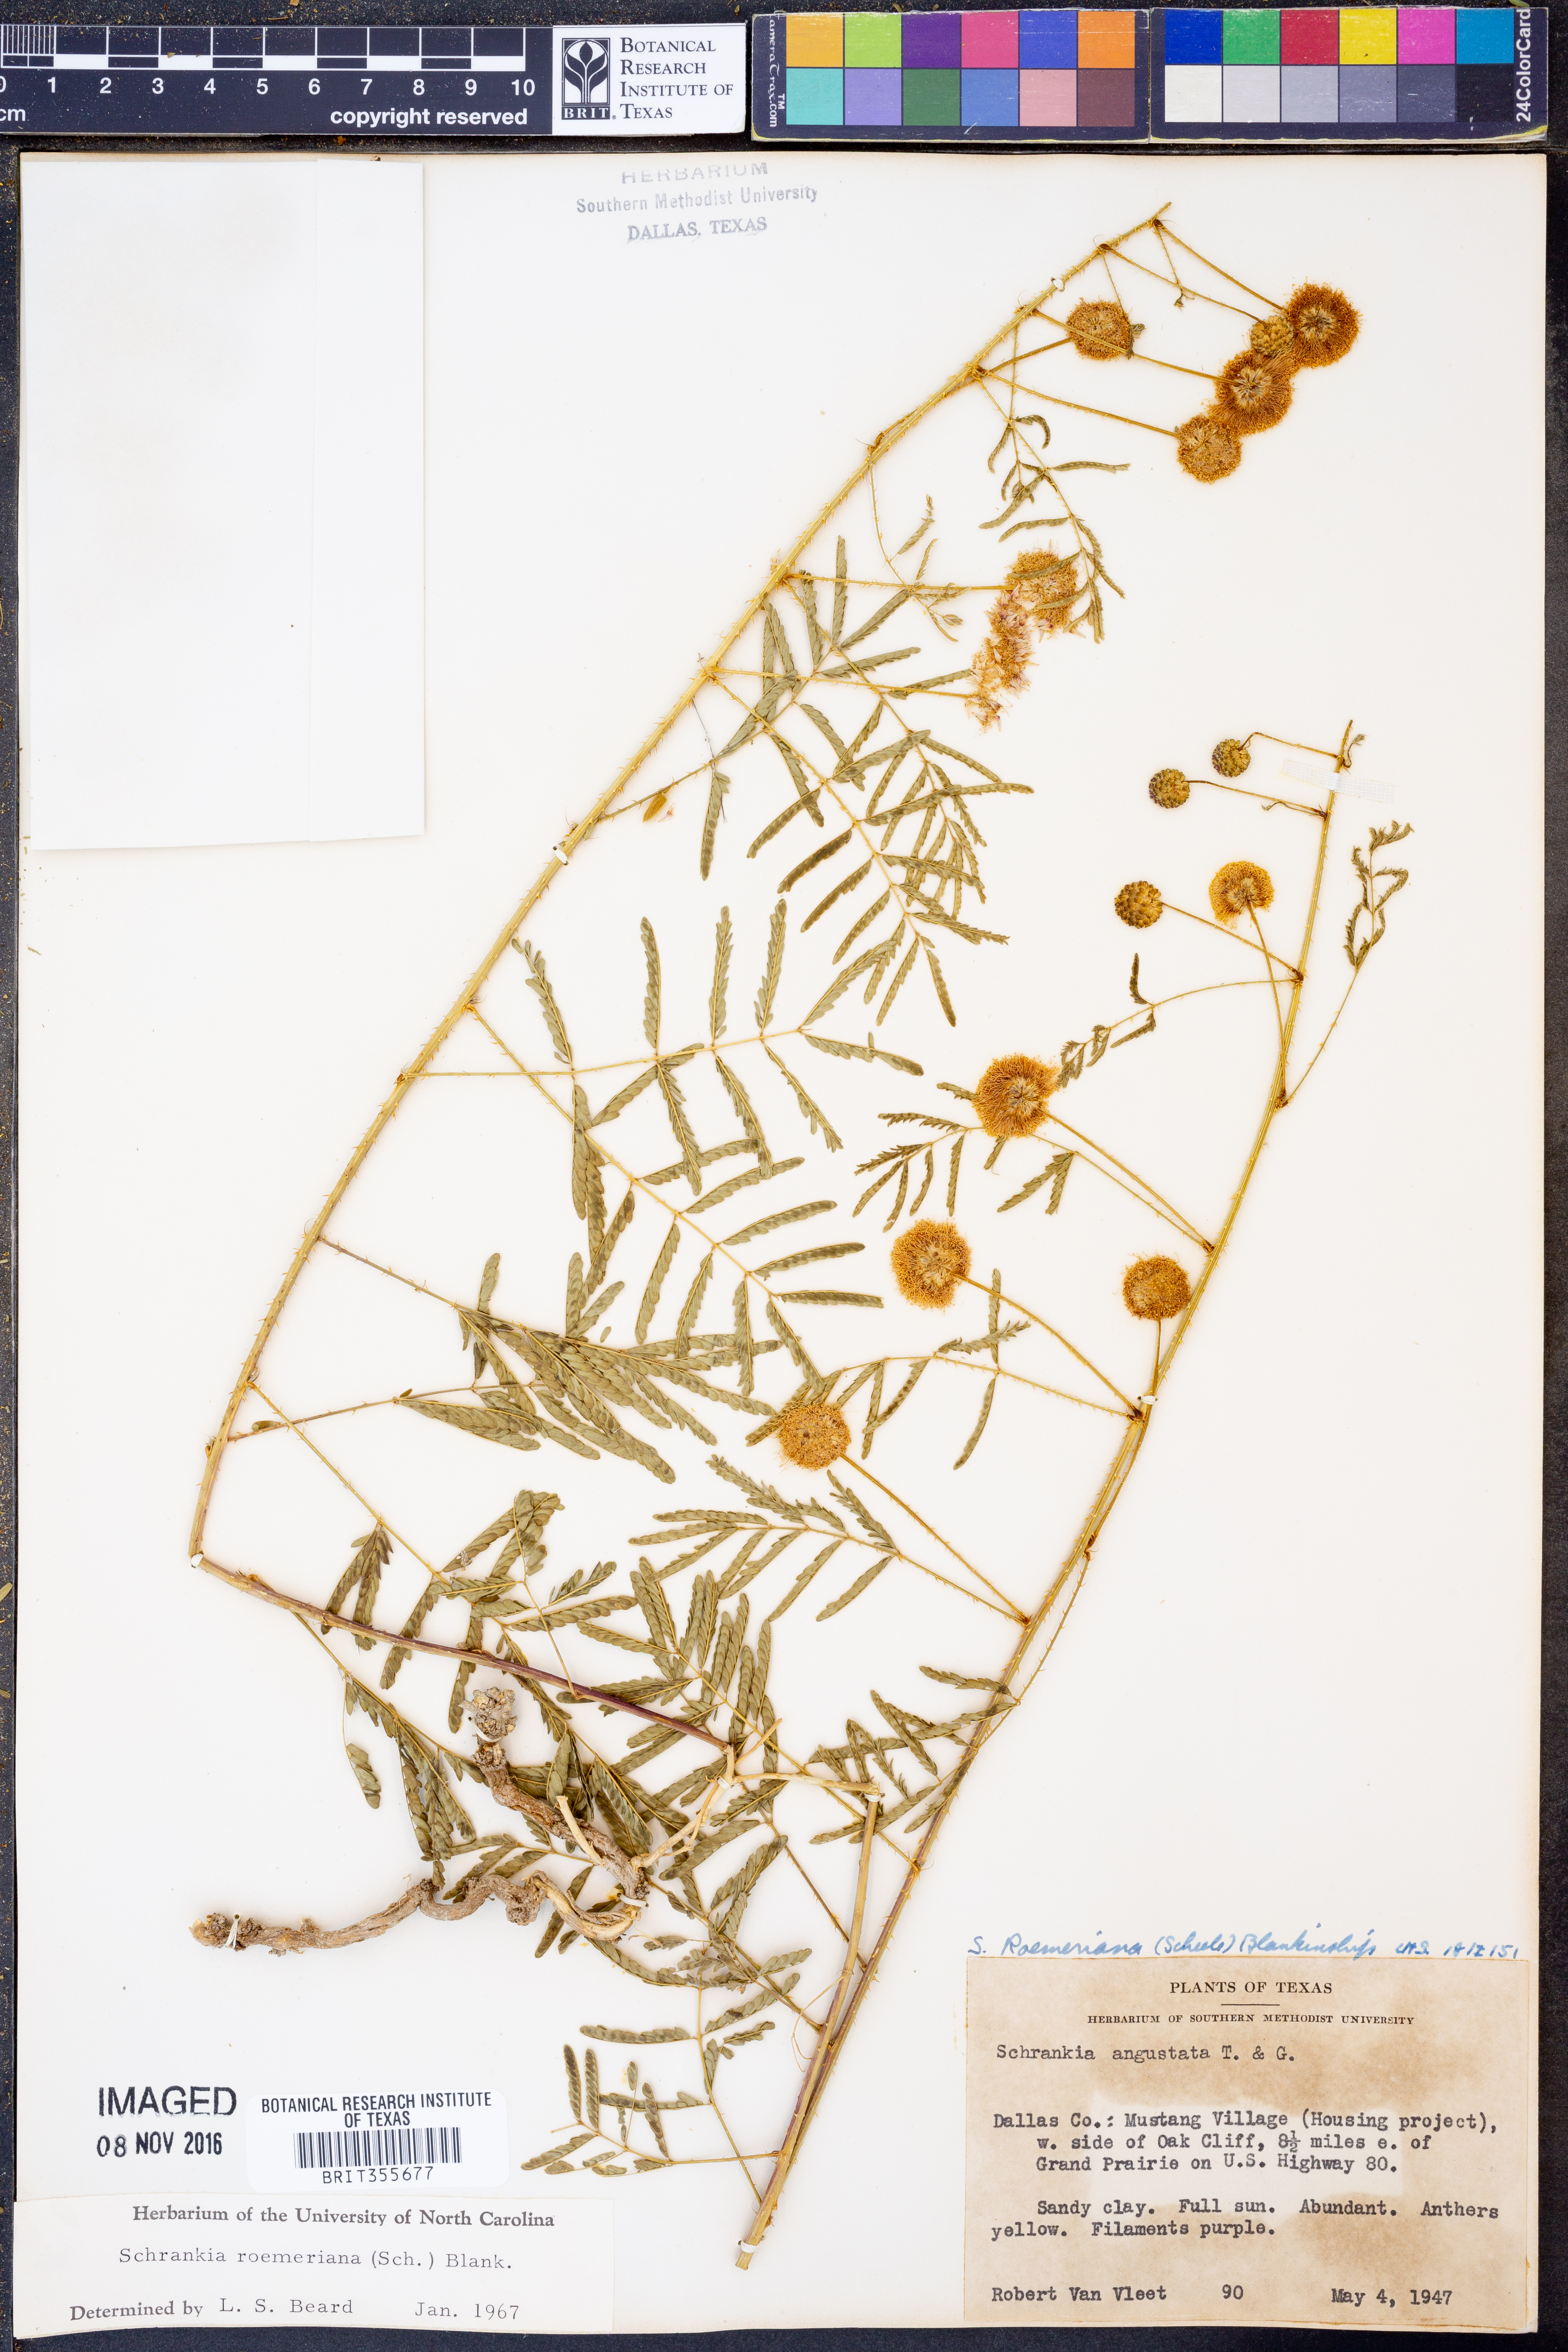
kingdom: Plantae
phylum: Tracheophyta
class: Magnoliopsida
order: Fabales
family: Fabaceae
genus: Mimosa
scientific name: Mimosa quadrivalvis
